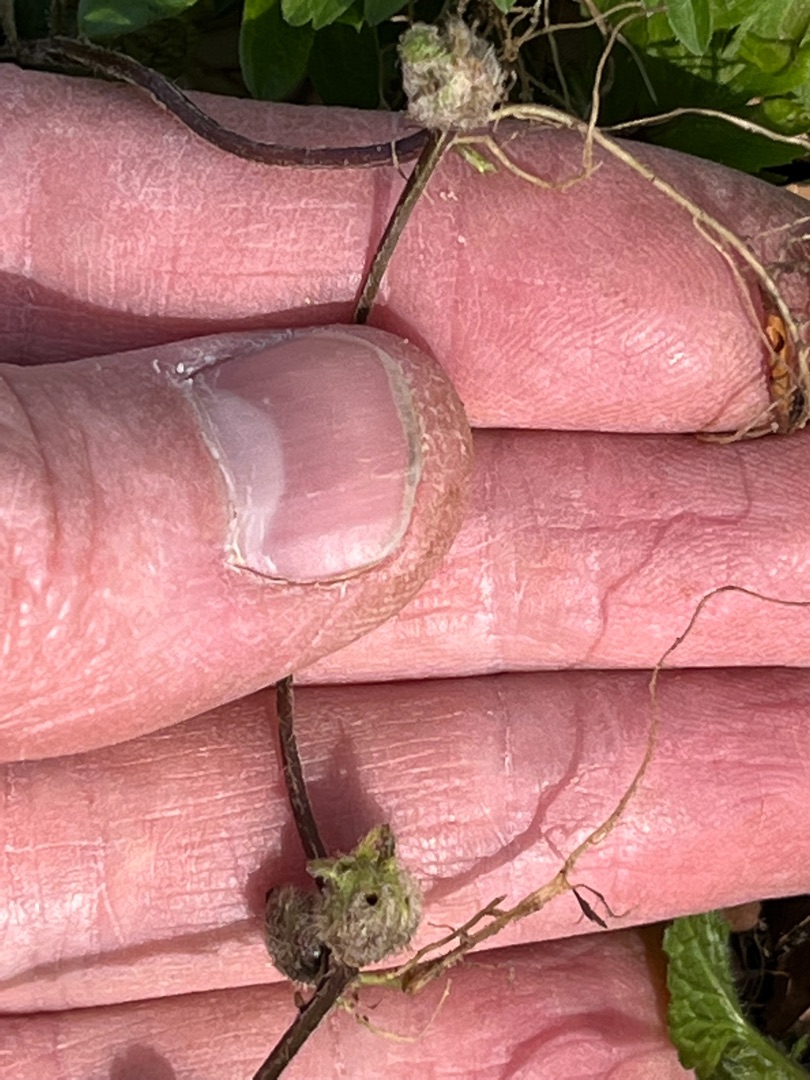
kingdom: Animalia
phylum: Arthropoda
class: Insecta
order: Diptera
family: Cecidomyiidae
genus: Dasineura
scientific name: Dasineura strumosa
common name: Guldnældegalmyg
